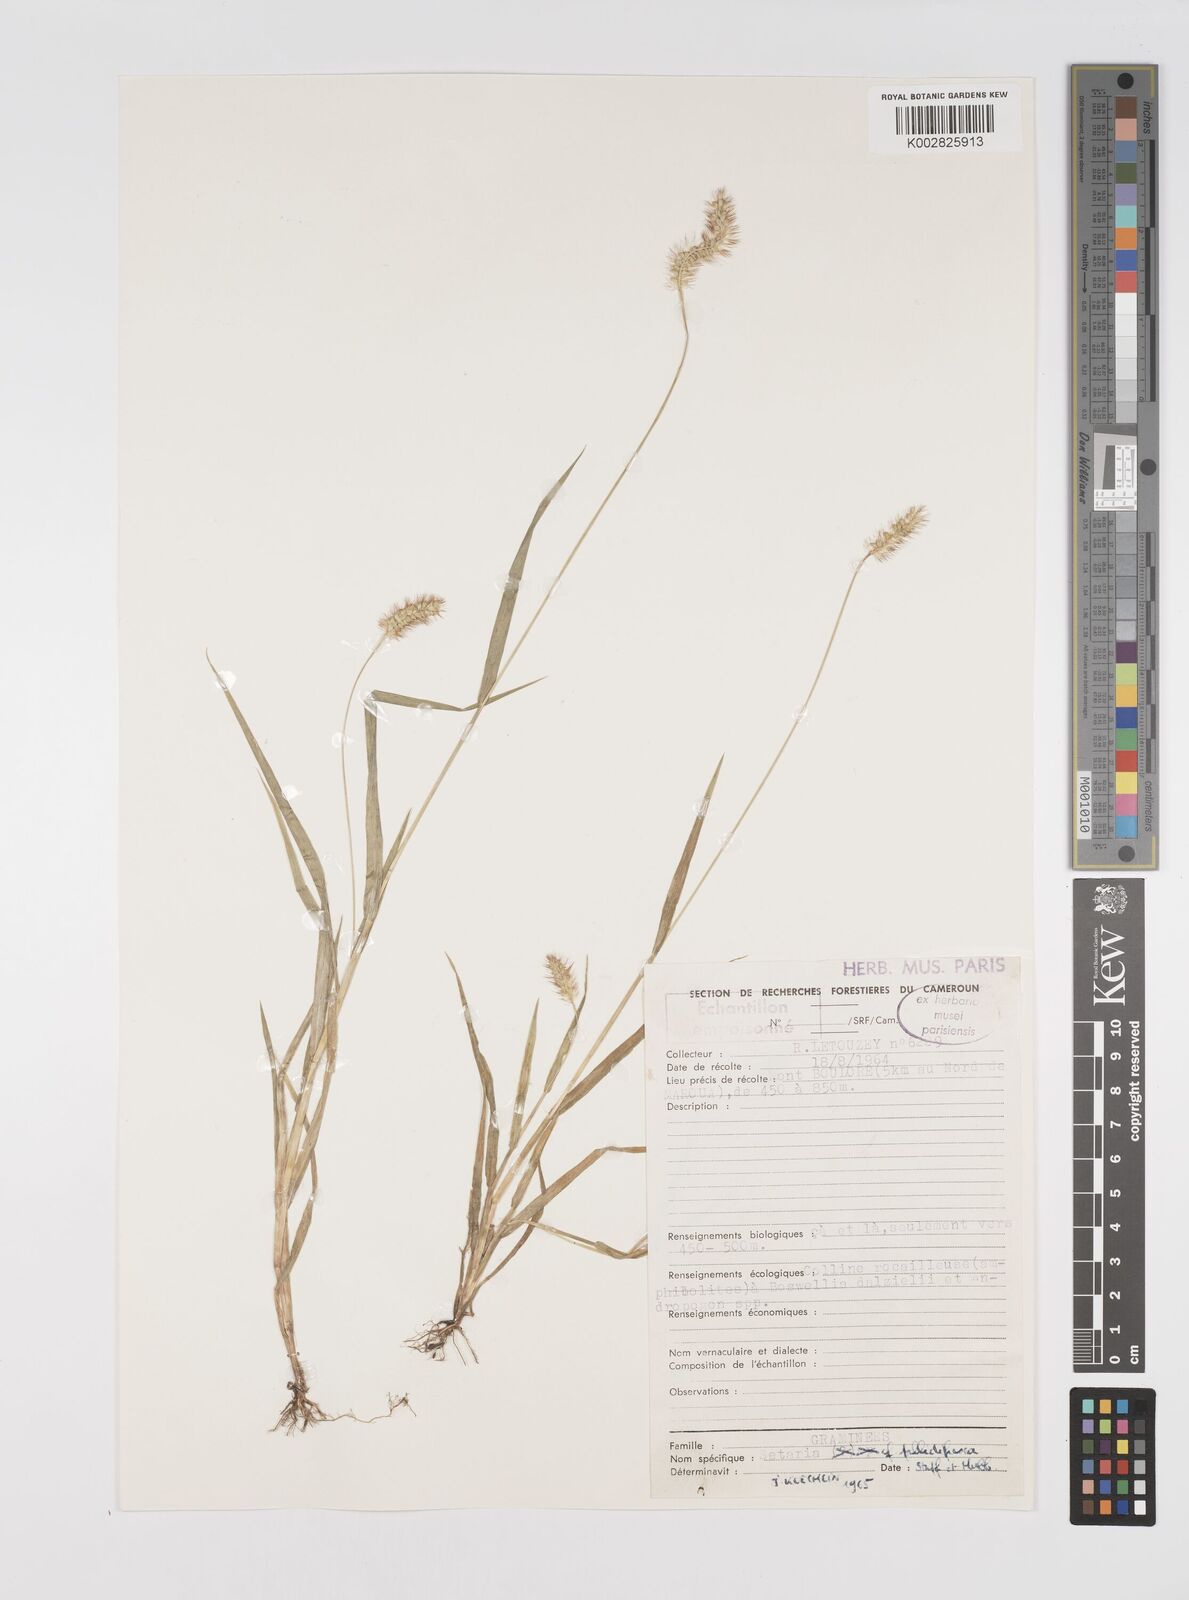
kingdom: Plantae
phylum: Tracheophyta
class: Liliopsida
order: Poales
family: Poaceae
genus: Setaria
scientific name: Setaria pumila
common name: Yellow bristle-grass
